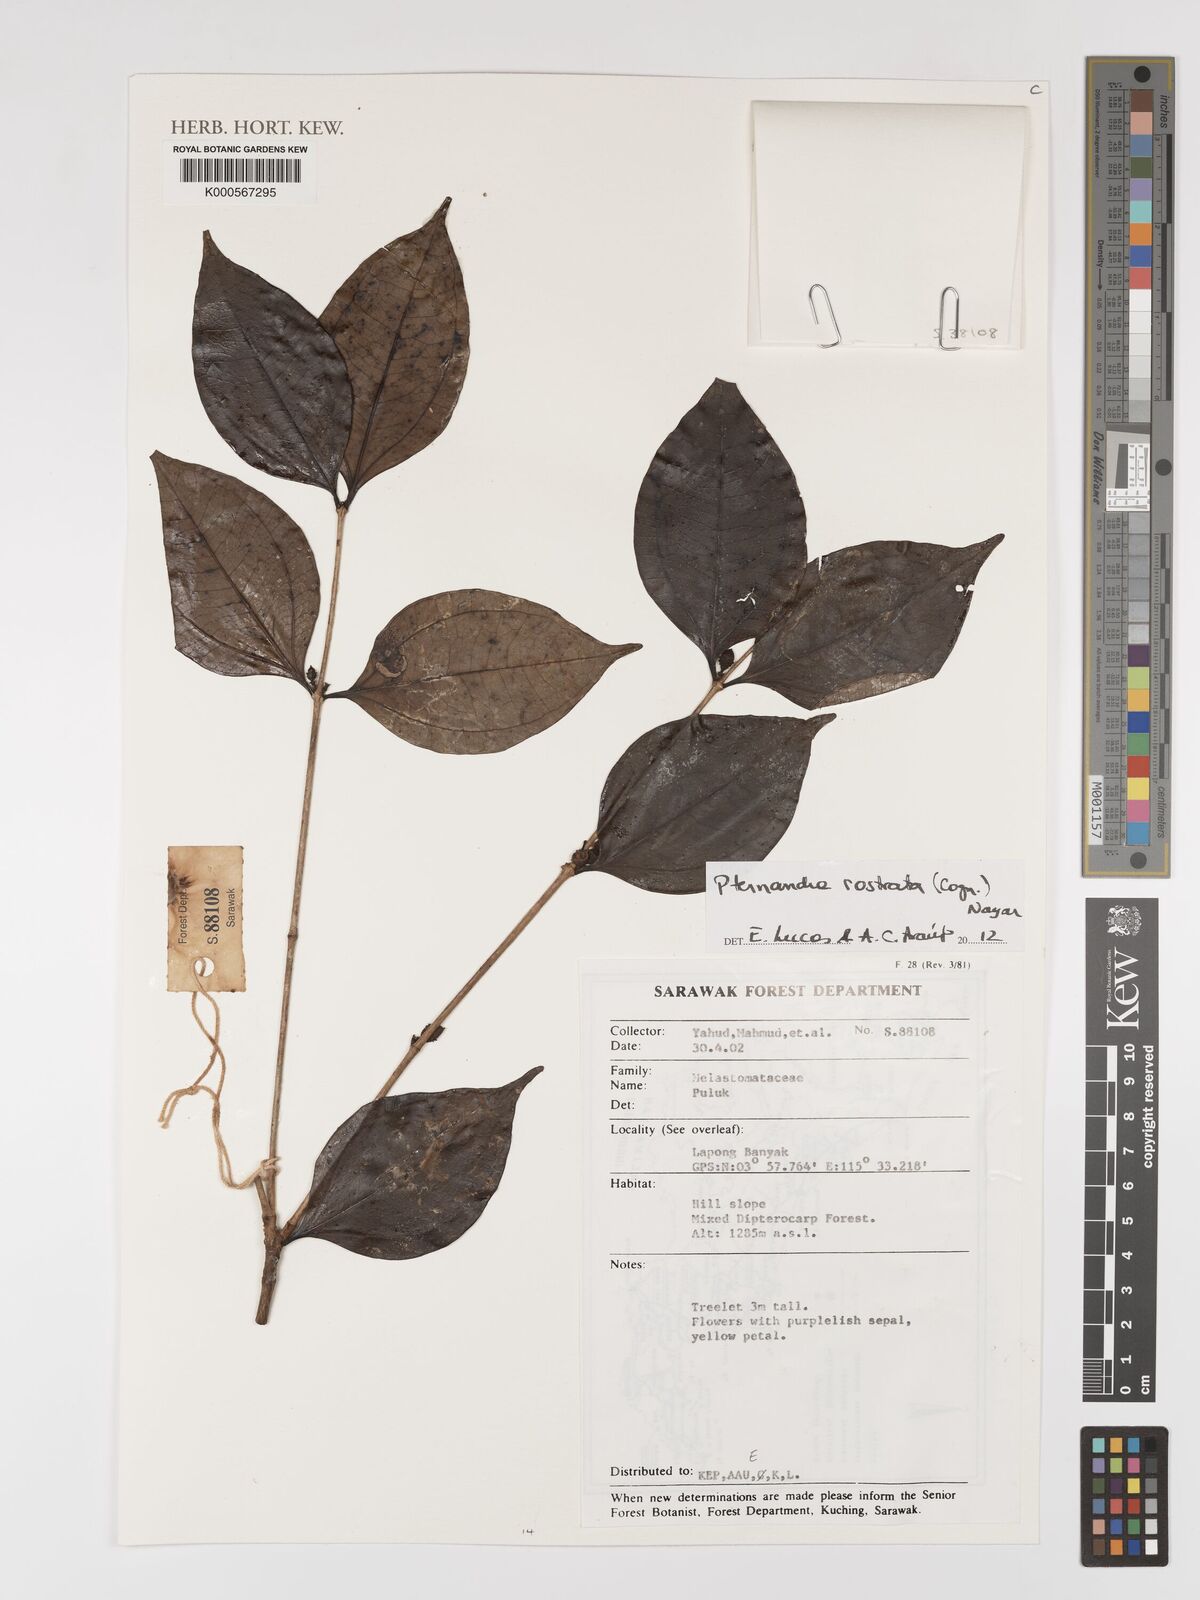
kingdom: Plantae
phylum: Tracheophyta
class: Magnoliopsida
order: Myrtales
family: Melastomataceae
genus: Pternandra
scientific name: Pternandra rostrata
